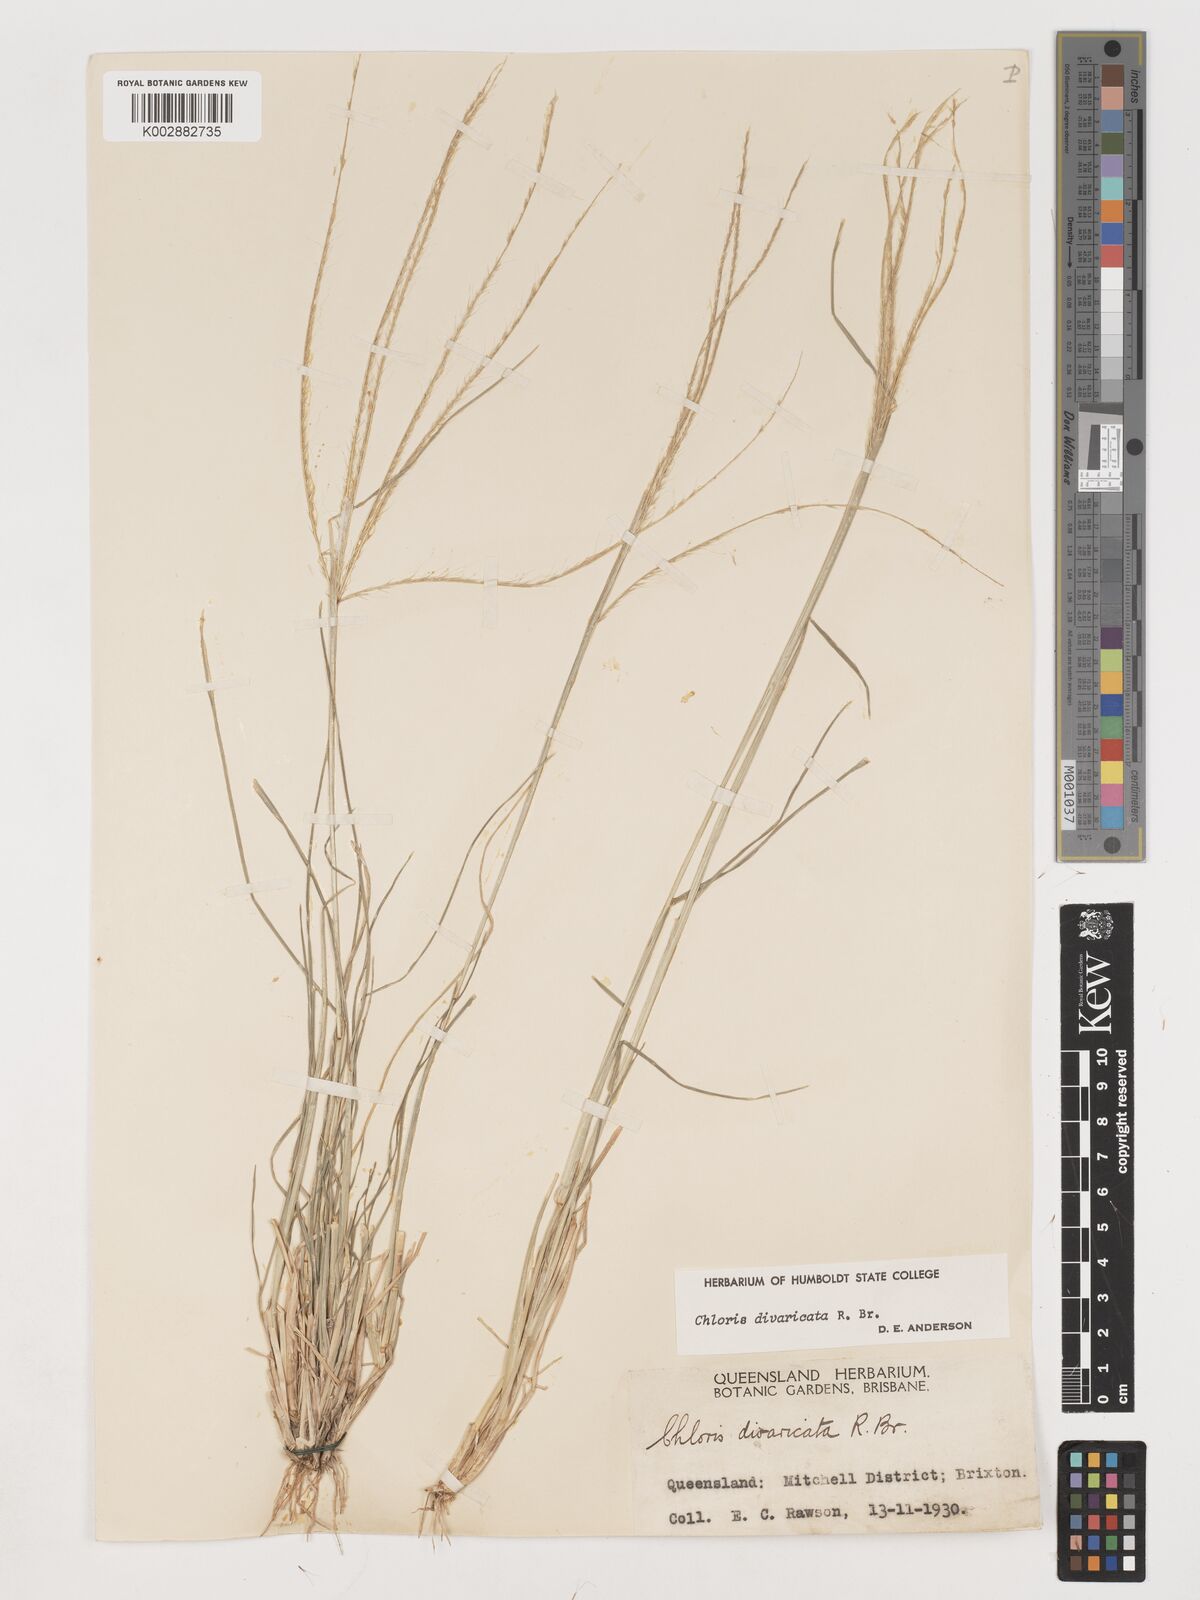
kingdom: Plantae
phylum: Tracheophyta
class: Liliopsida
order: Poales
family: Poaceae
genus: Chloris
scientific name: Chloris divaricata
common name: Spreading windmill grass
